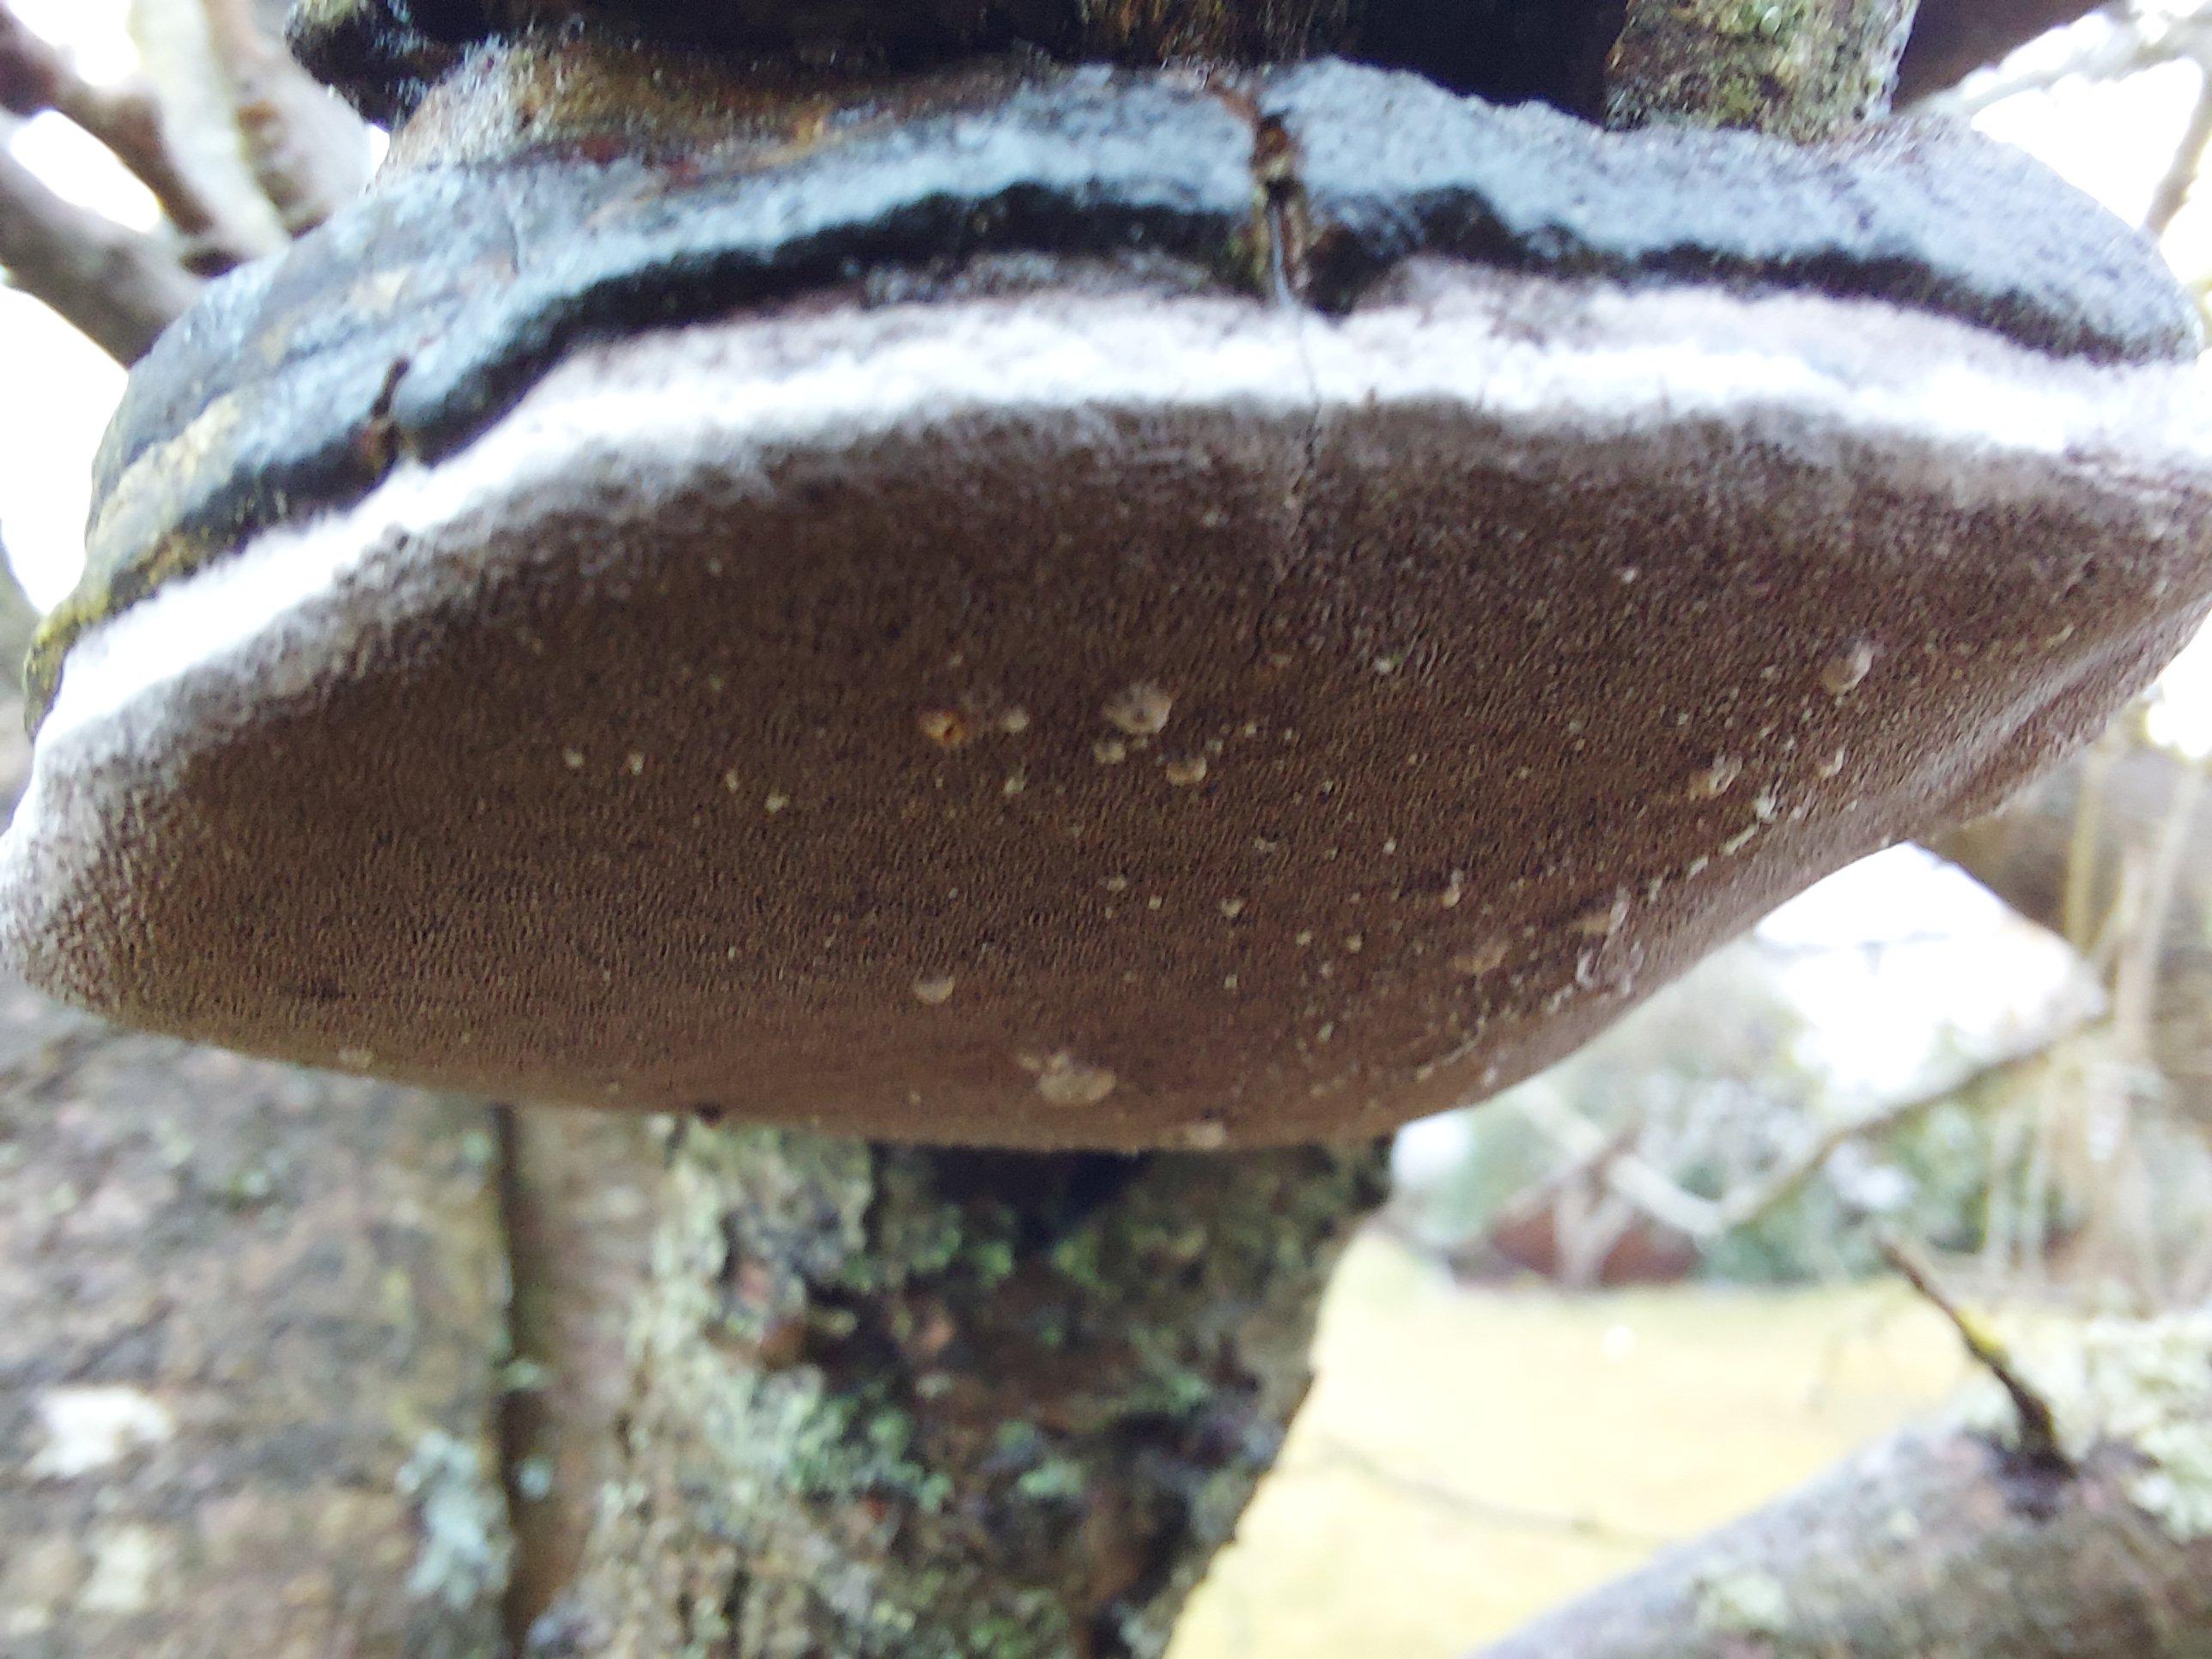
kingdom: Fungi
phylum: Basidiomycota
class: Agaricomycetes
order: Hymenochaetales
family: Hymenochaetaceae
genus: Phellinus
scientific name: Phellinus pomaceus
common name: blomme-ildporesvamp
